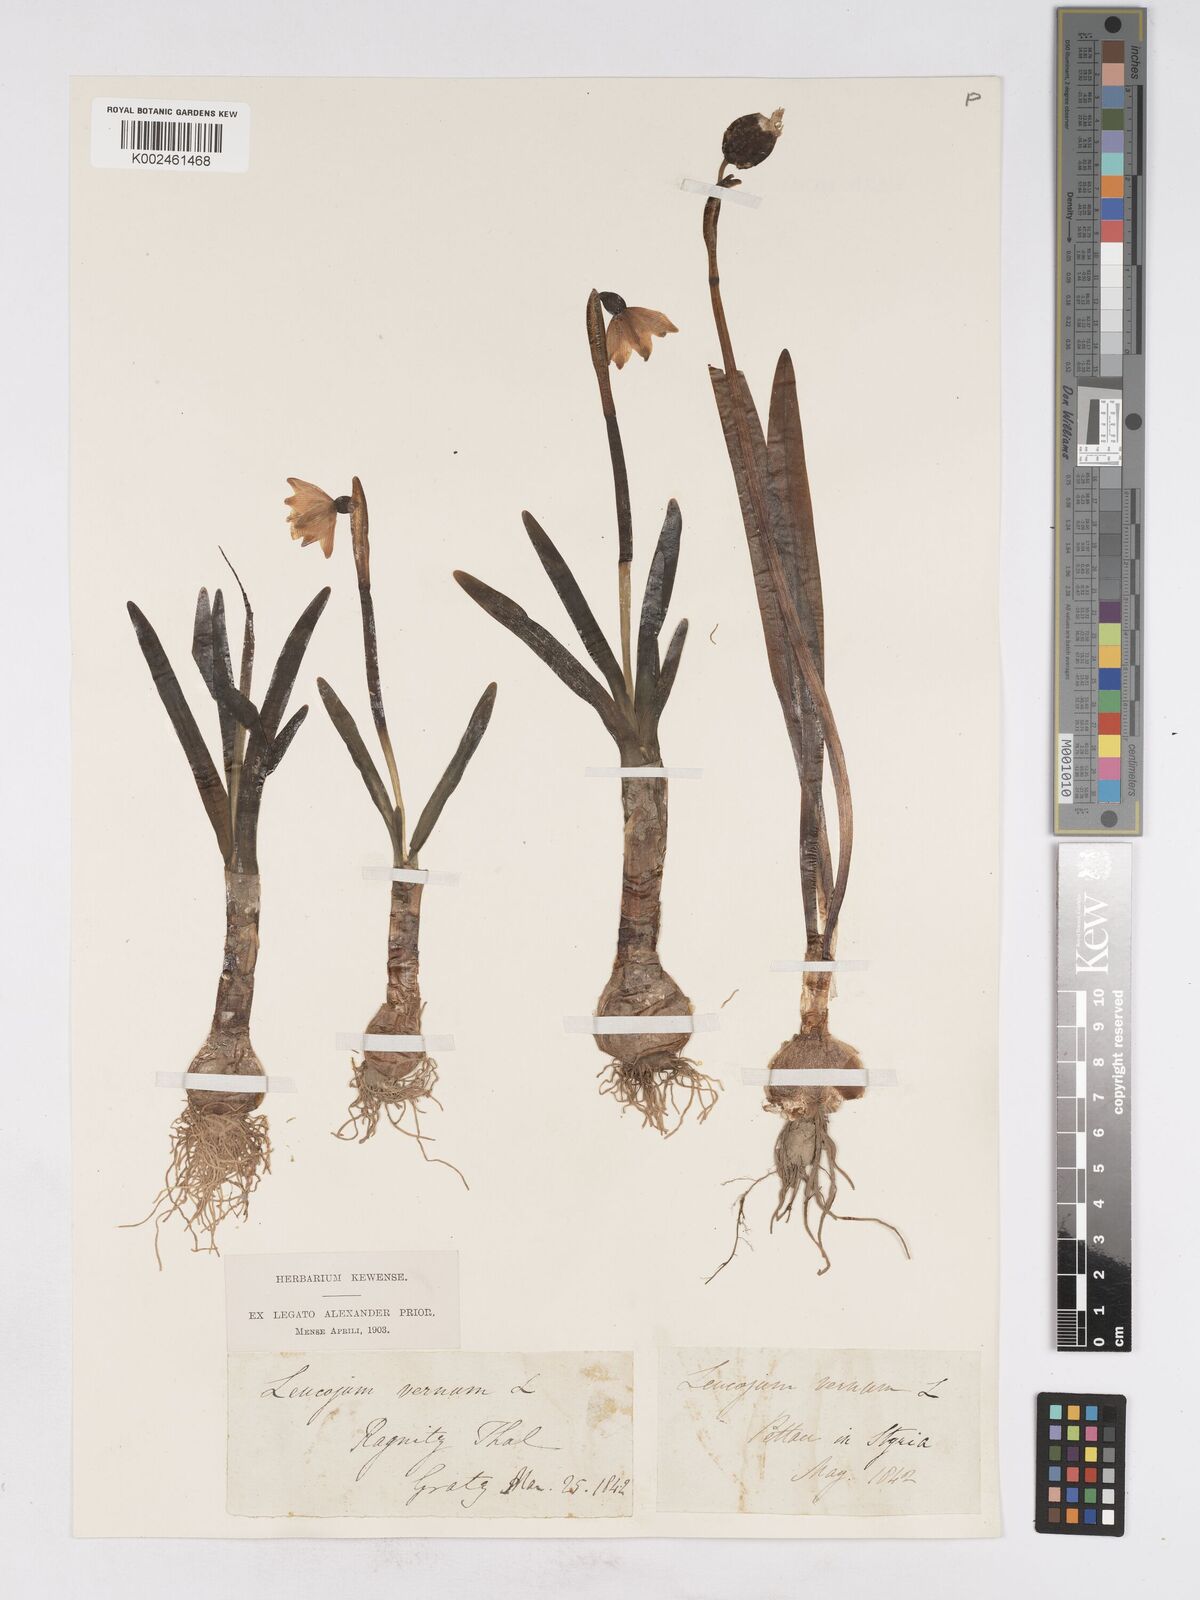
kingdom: Plantae
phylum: Tracheophyta
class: Liliopsida
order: Asparagales
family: Amaryllidaceae
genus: Leucojum
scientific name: Leucojum vernum
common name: Spring snowflake
